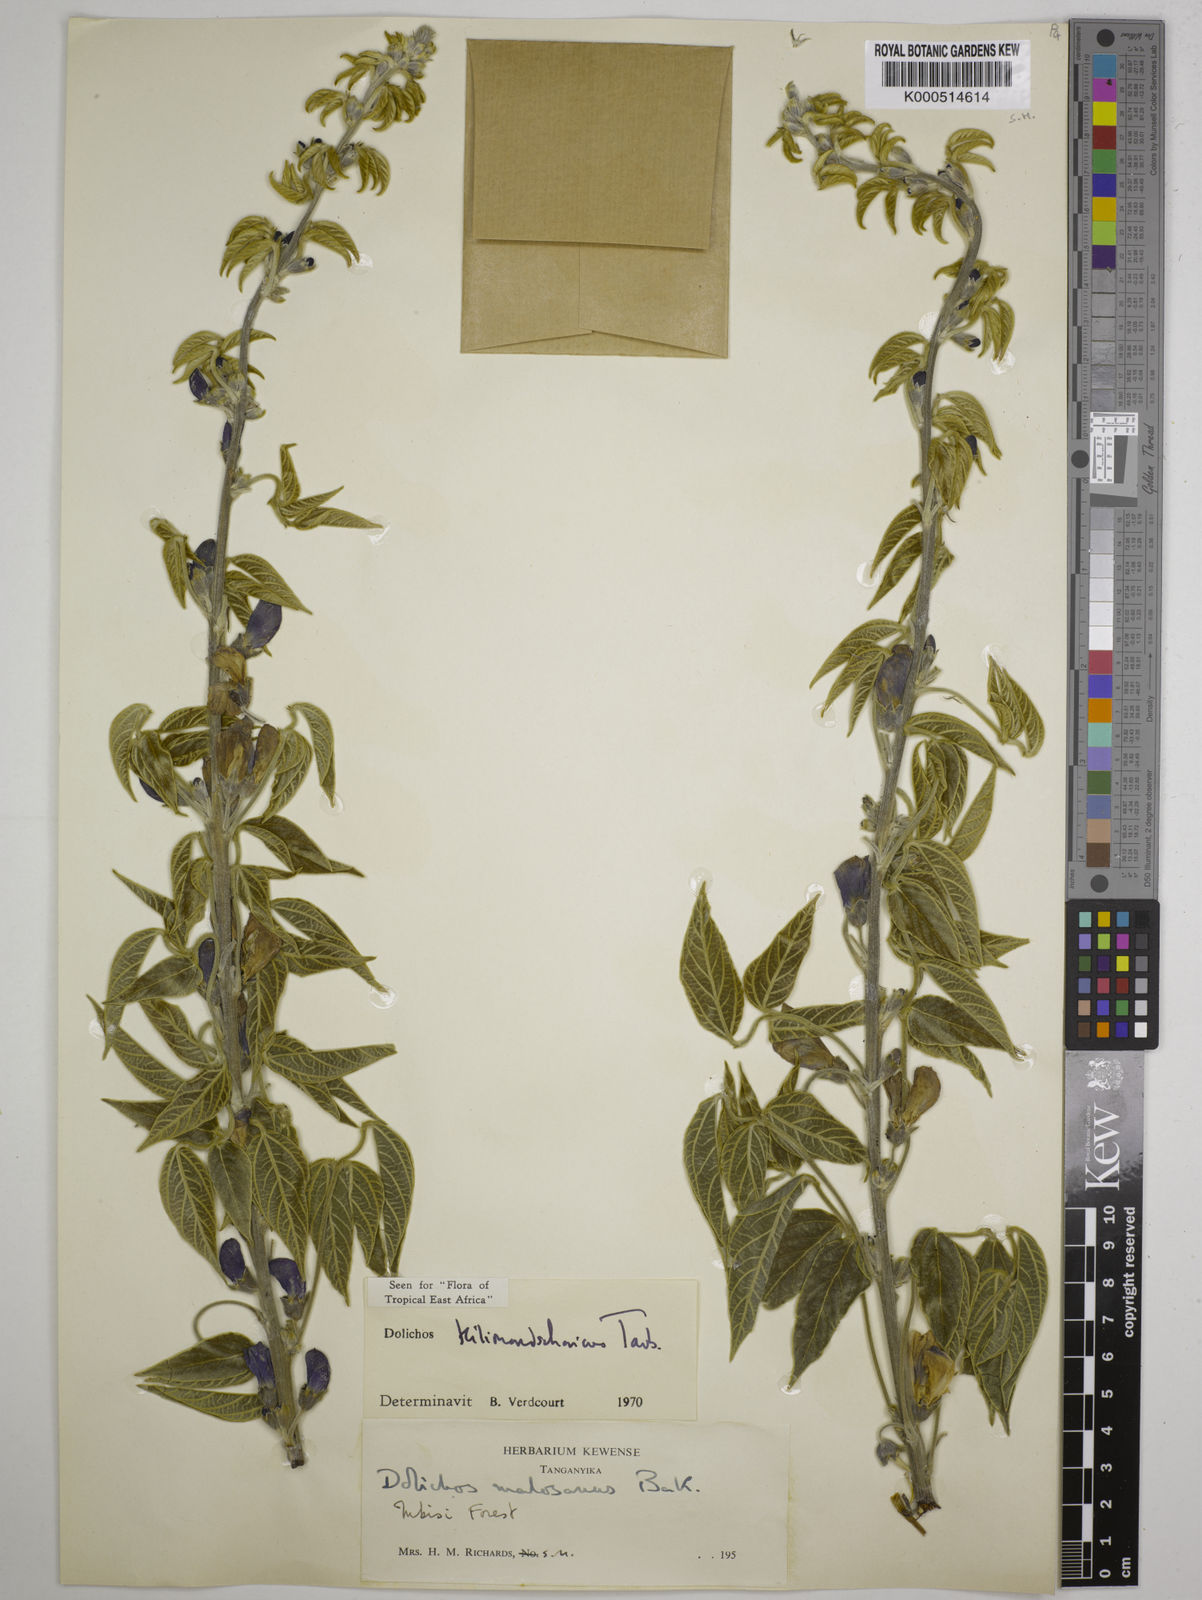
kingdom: Plantae
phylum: Tracheophyta
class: Magnoliopsida
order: Fabales
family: Fabaceae
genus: Dolichos
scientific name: Dolichos kilimandscharicus
